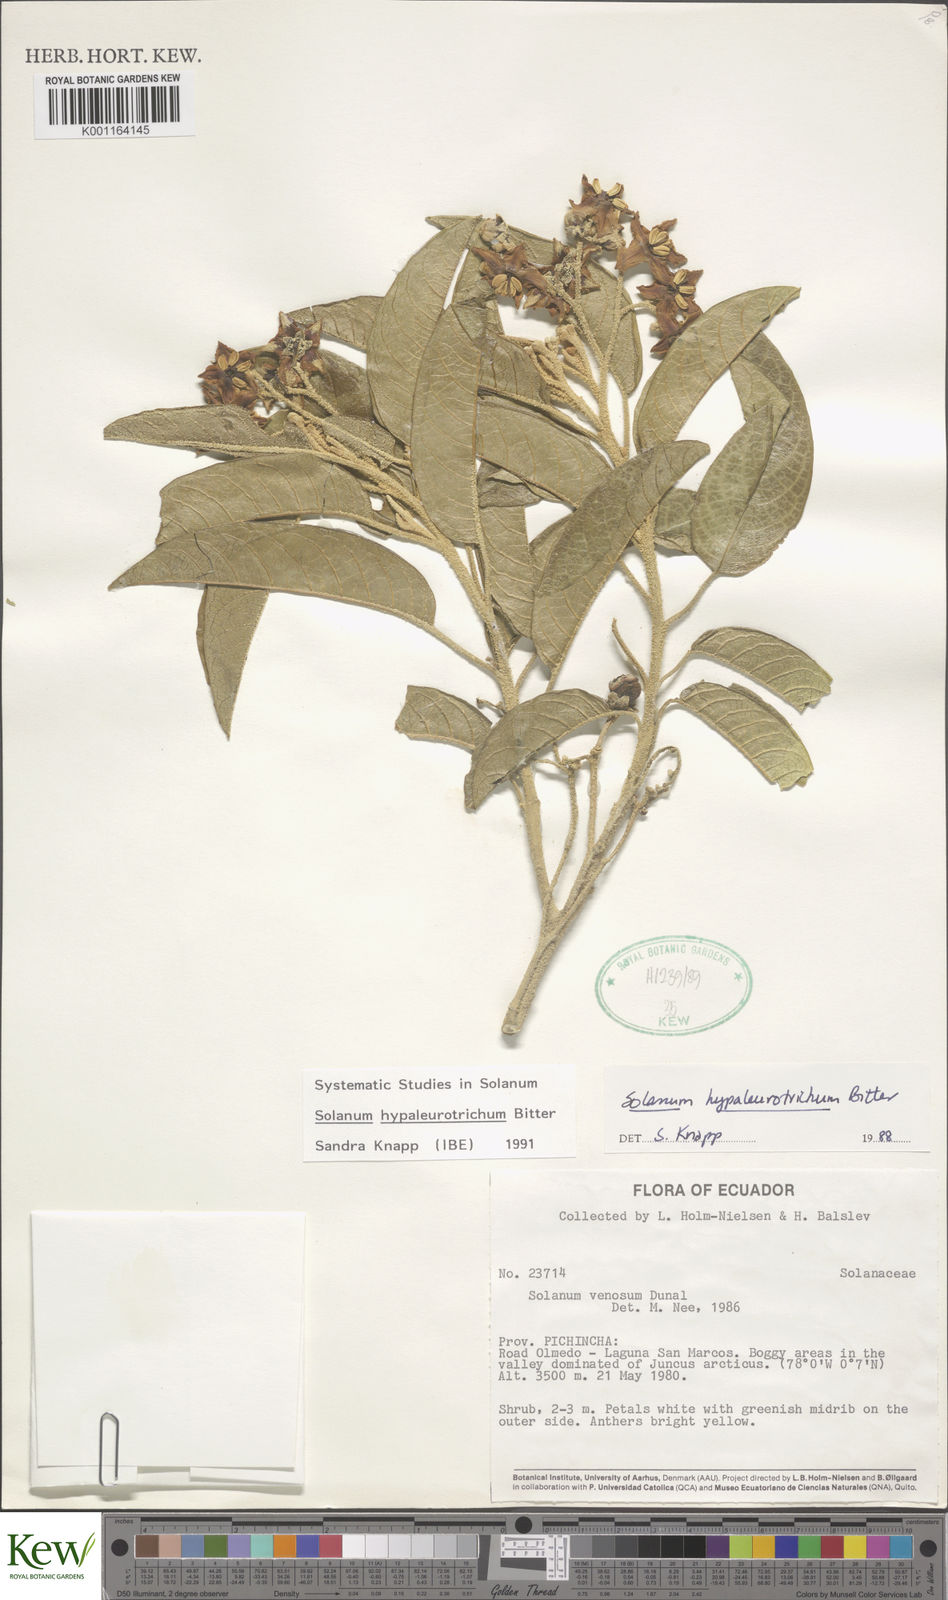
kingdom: Plantae
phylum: Tracheophyta
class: Magnoliopsida
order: Solanales
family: Solanaceae
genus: Solanum
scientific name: Solanum hypaleurotrichum
